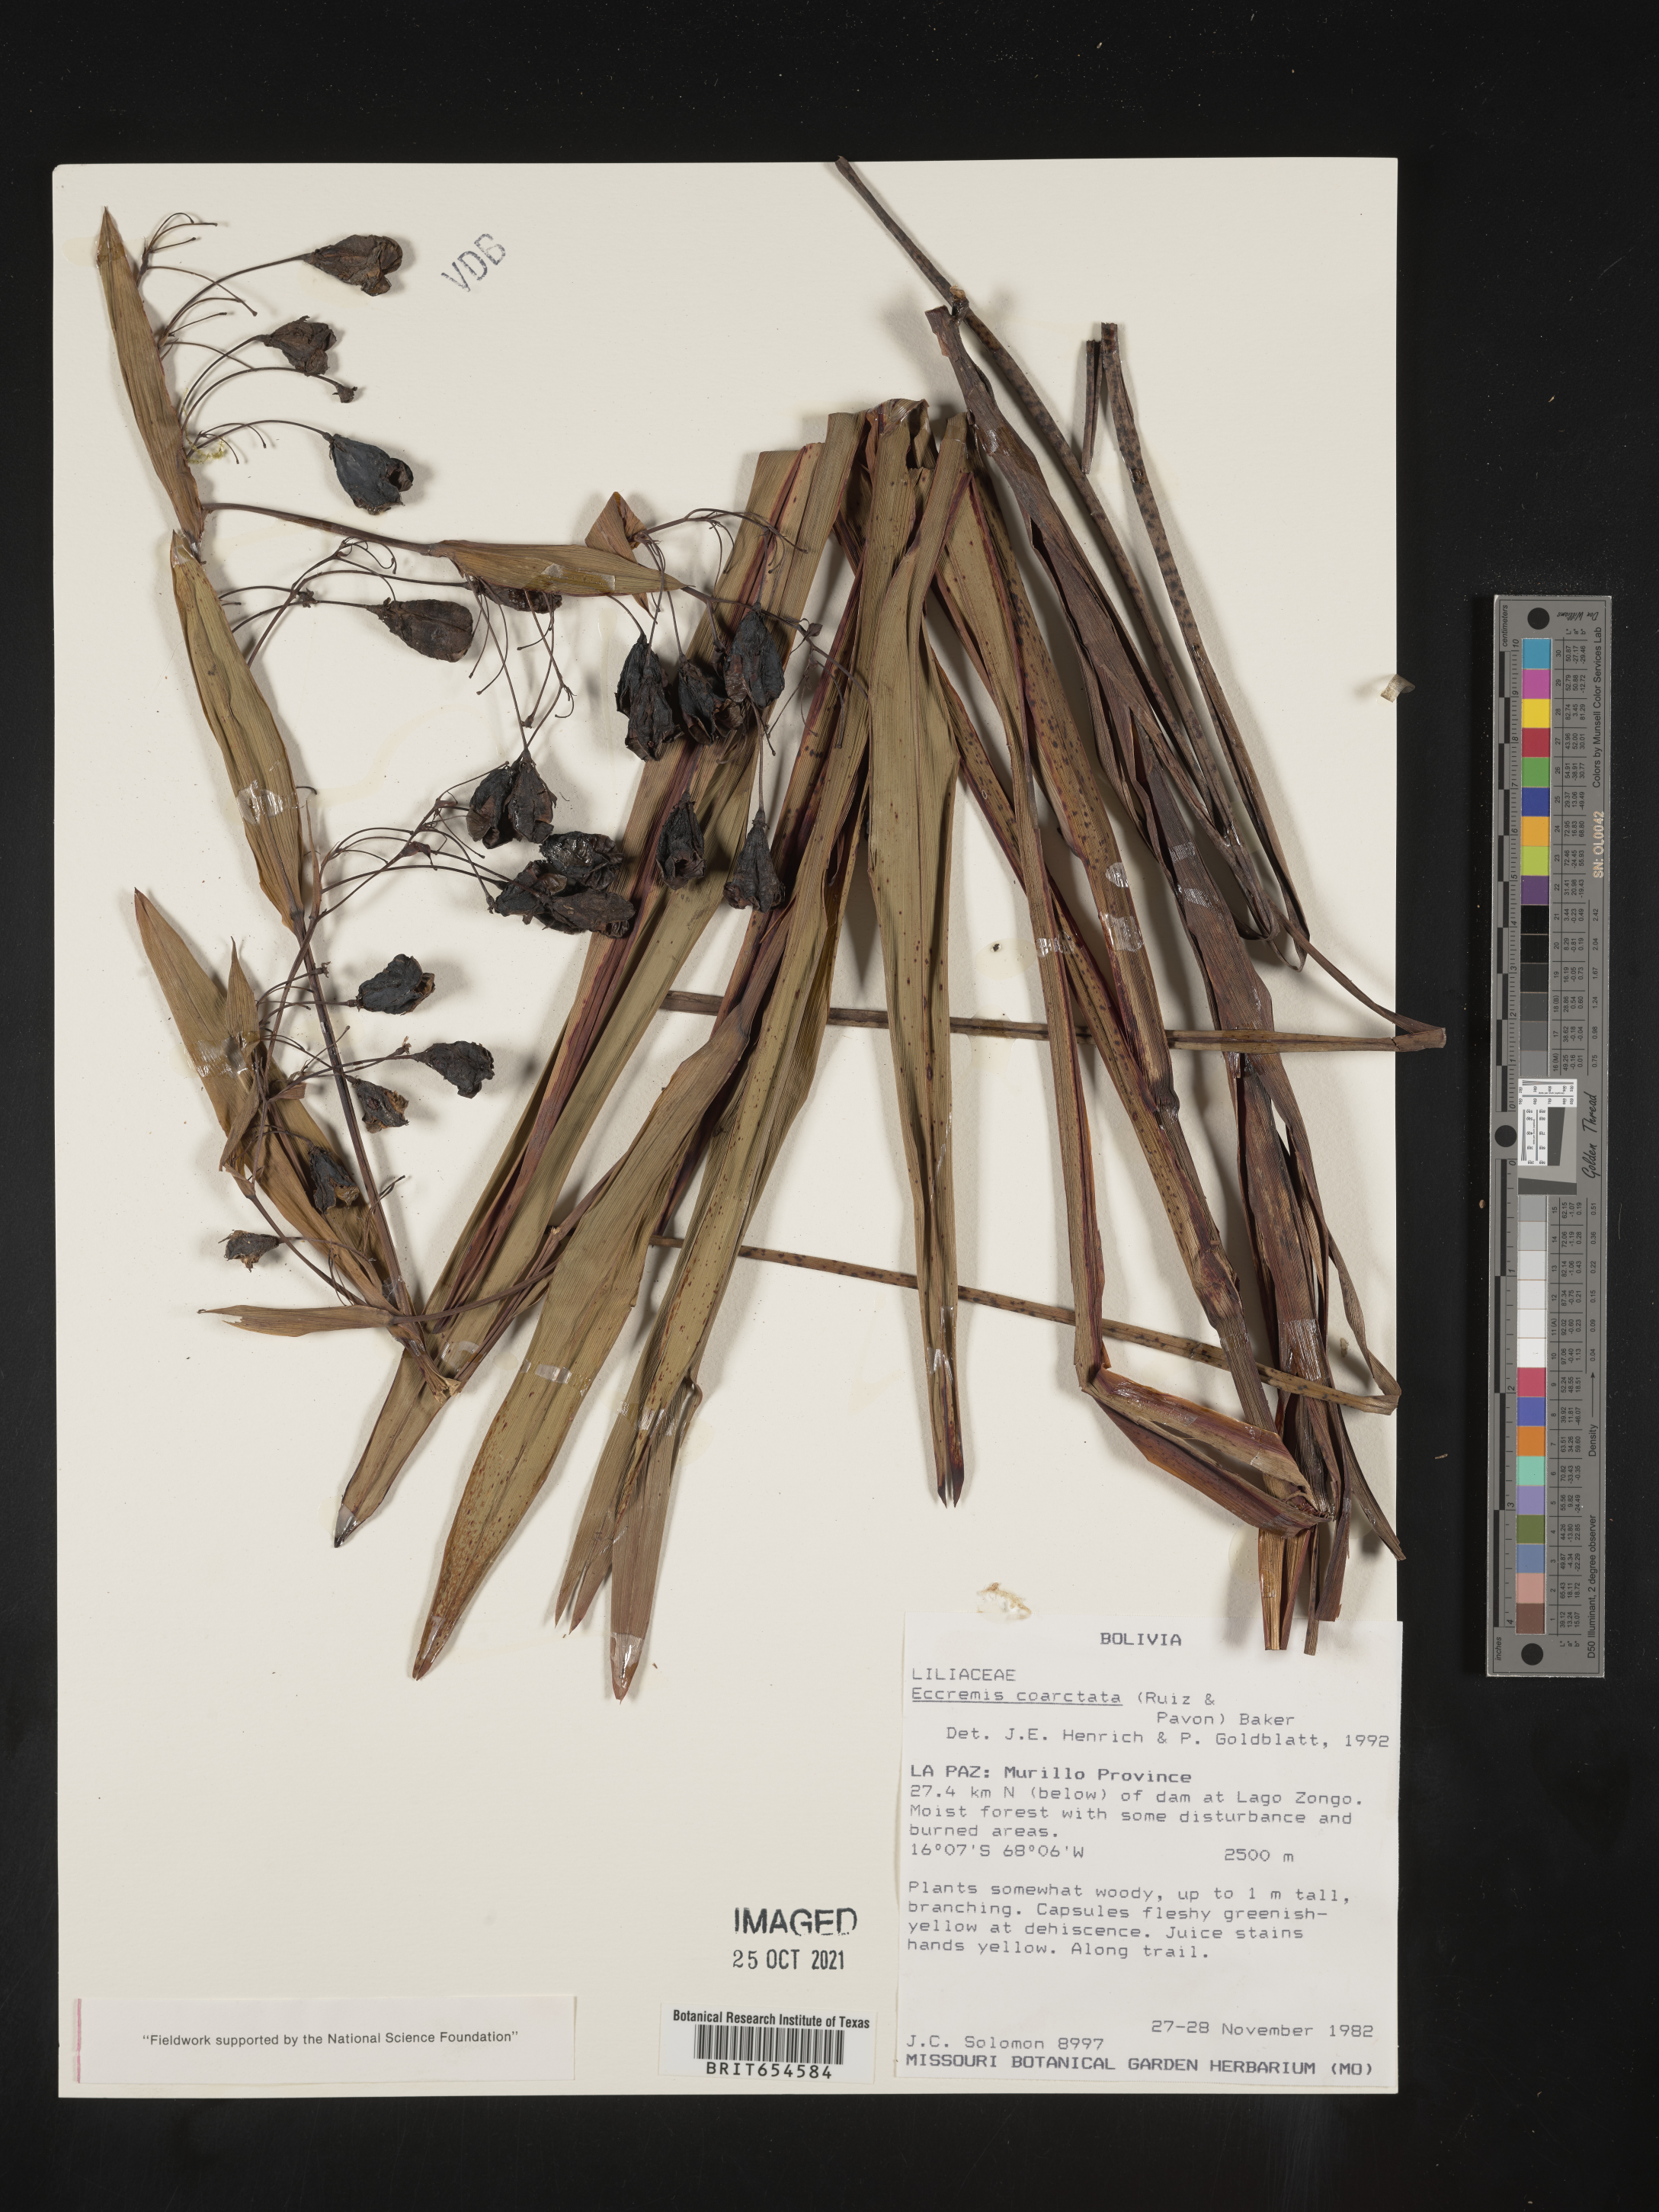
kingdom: Plantae
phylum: Tracheophyta
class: Liliopsida
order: Asparagales
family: Asphodelaceae
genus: Excremis
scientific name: Excremis coarctata
